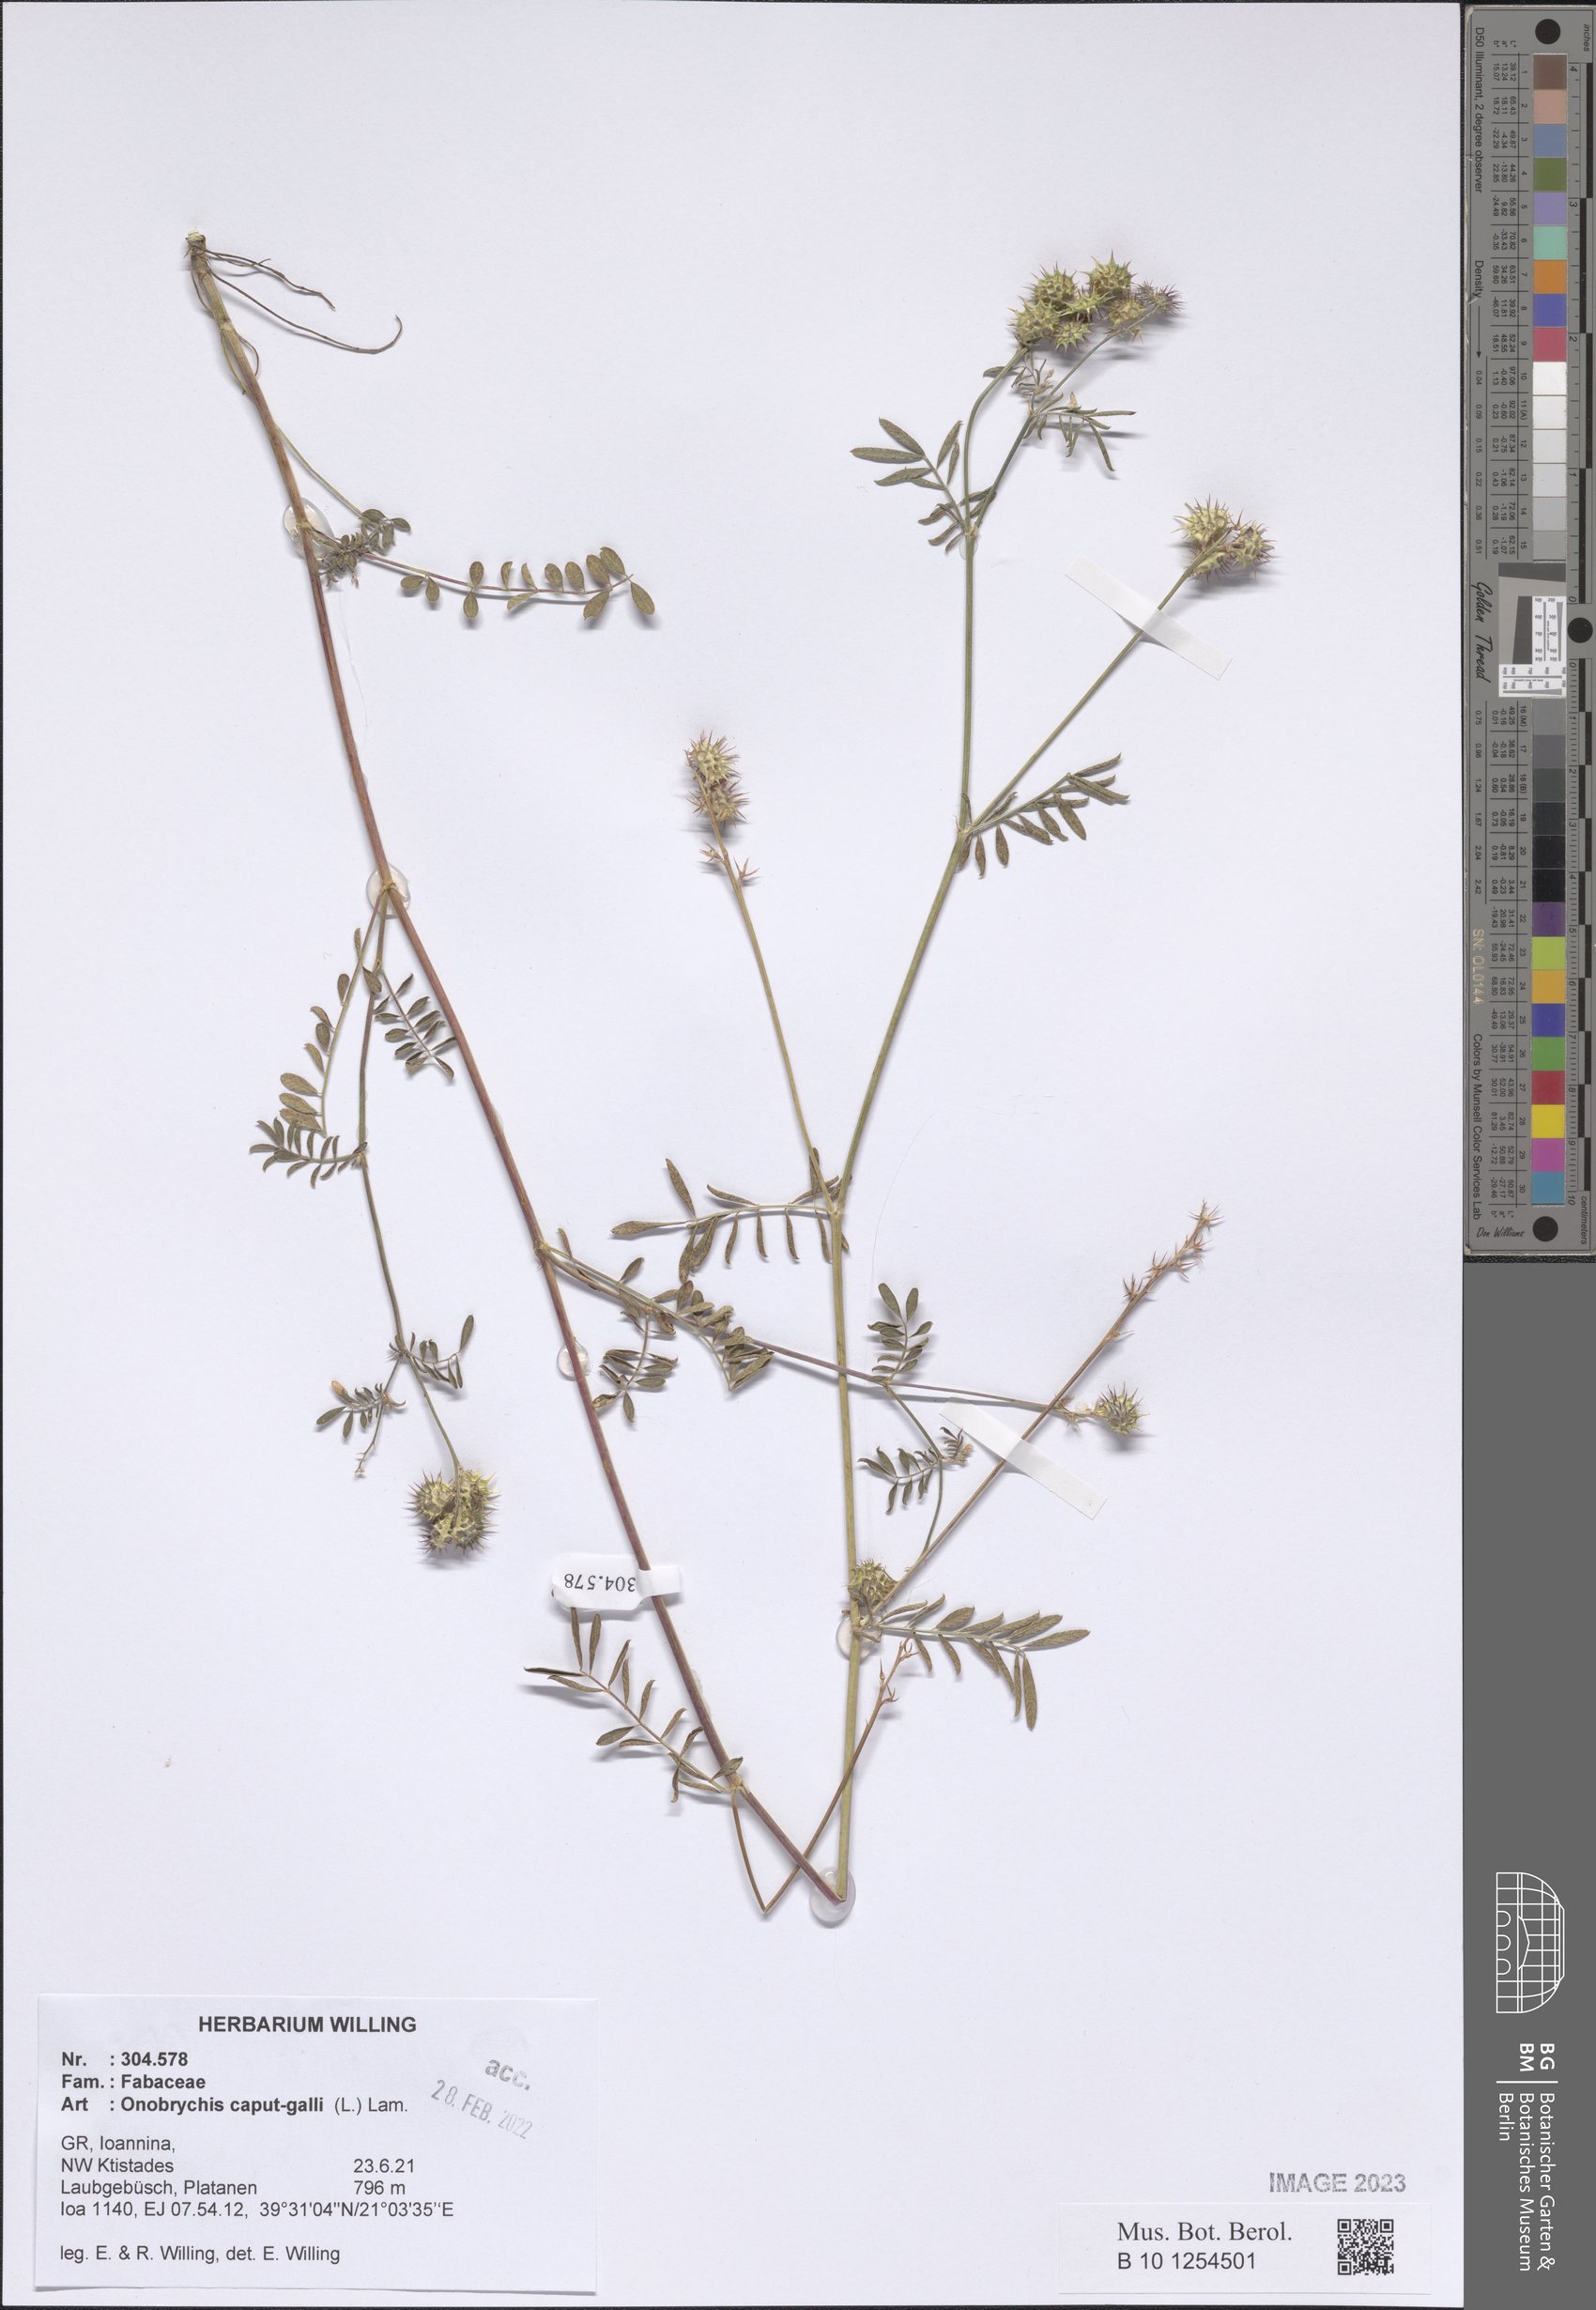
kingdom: Plantae
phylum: Tracheophyta
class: Magnoliopsida
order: Fabales
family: Fabaceae
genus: Onobrychis
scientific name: Onobrychis caput-galli
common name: Cockscomb sainfoin
